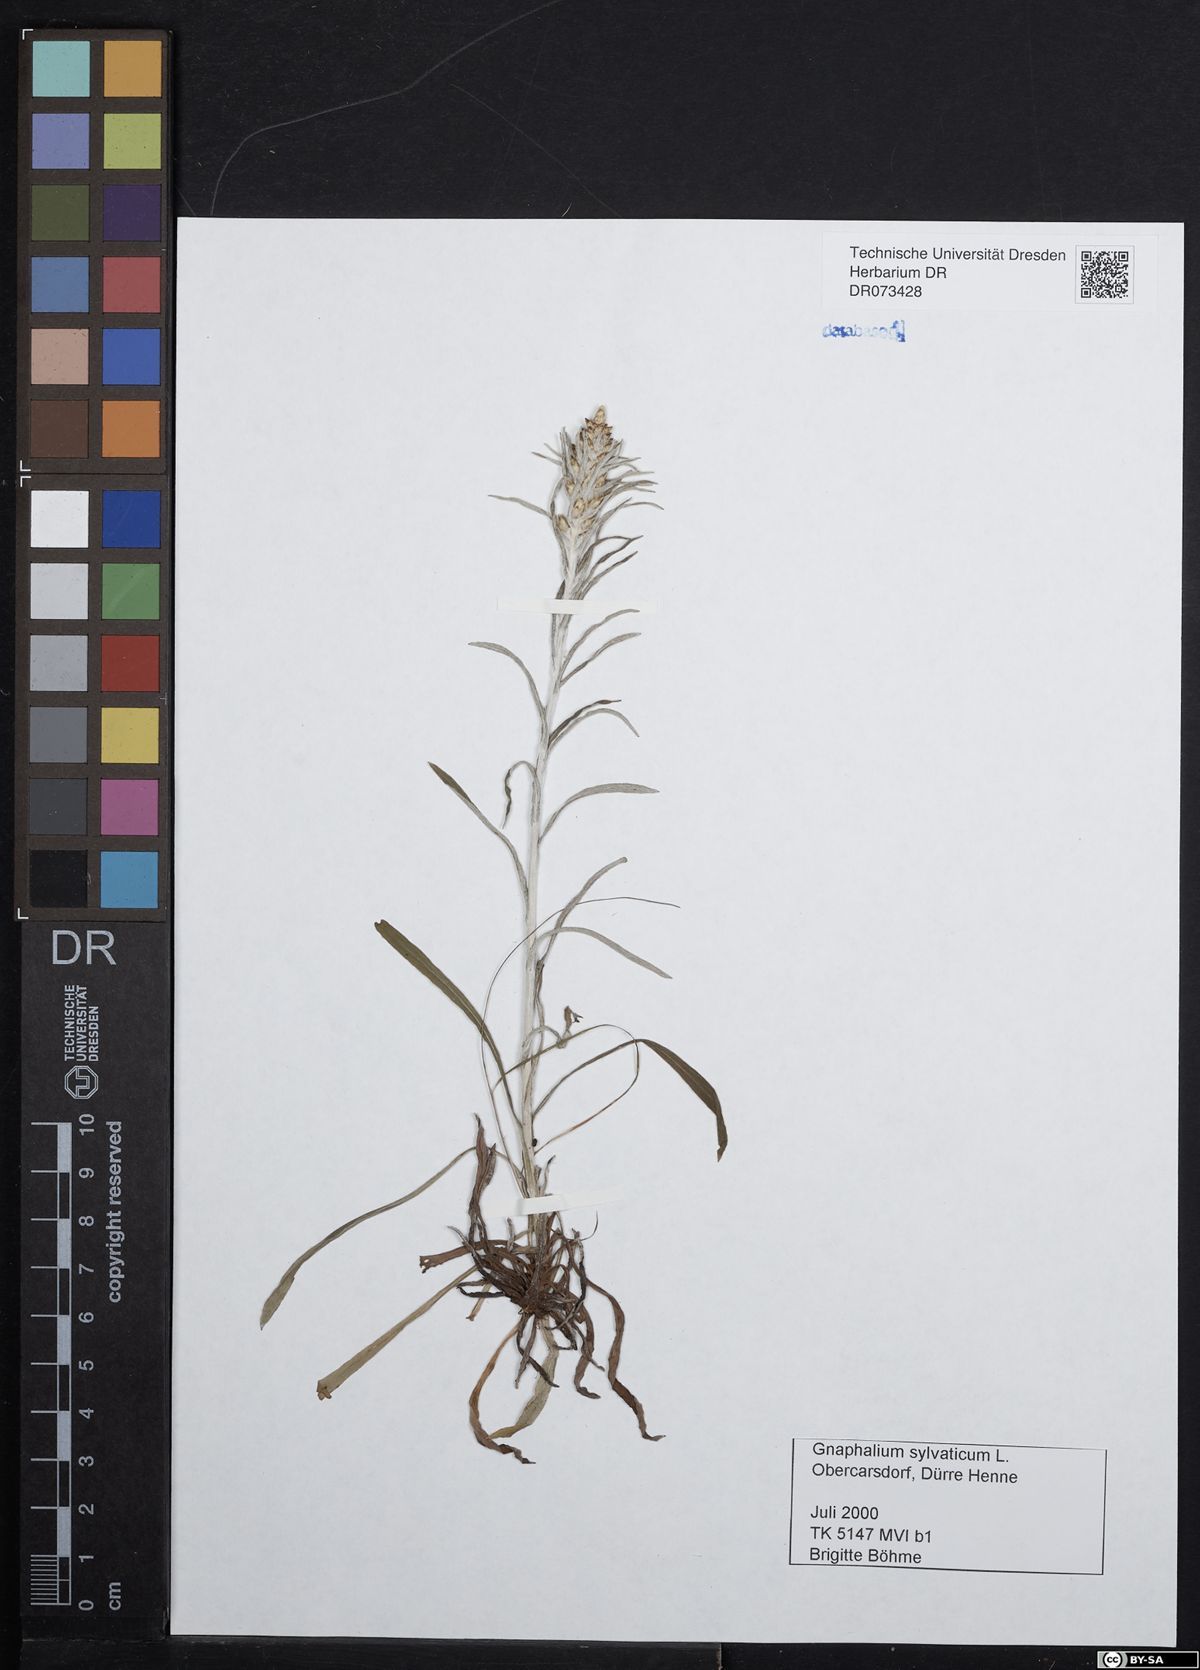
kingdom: Plantae
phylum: Tracheophyta
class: Magnoliopsida
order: Asterales
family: Asteraceae
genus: Gnaphalium
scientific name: Gnaphalium uliginosum
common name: Marsh cudweed
